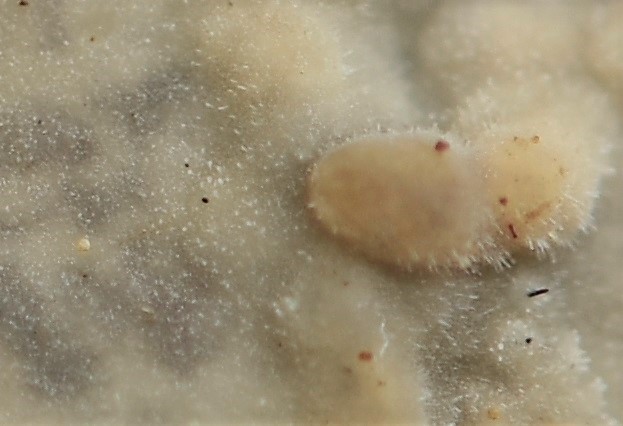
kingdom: Fungi
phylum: Basidiomycota
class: Agaricomycetes
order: Hymenochaetales
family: Rickenellaceae
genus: Peniophorella
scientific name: Peniophorella pubera
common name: dunet kalkskind
